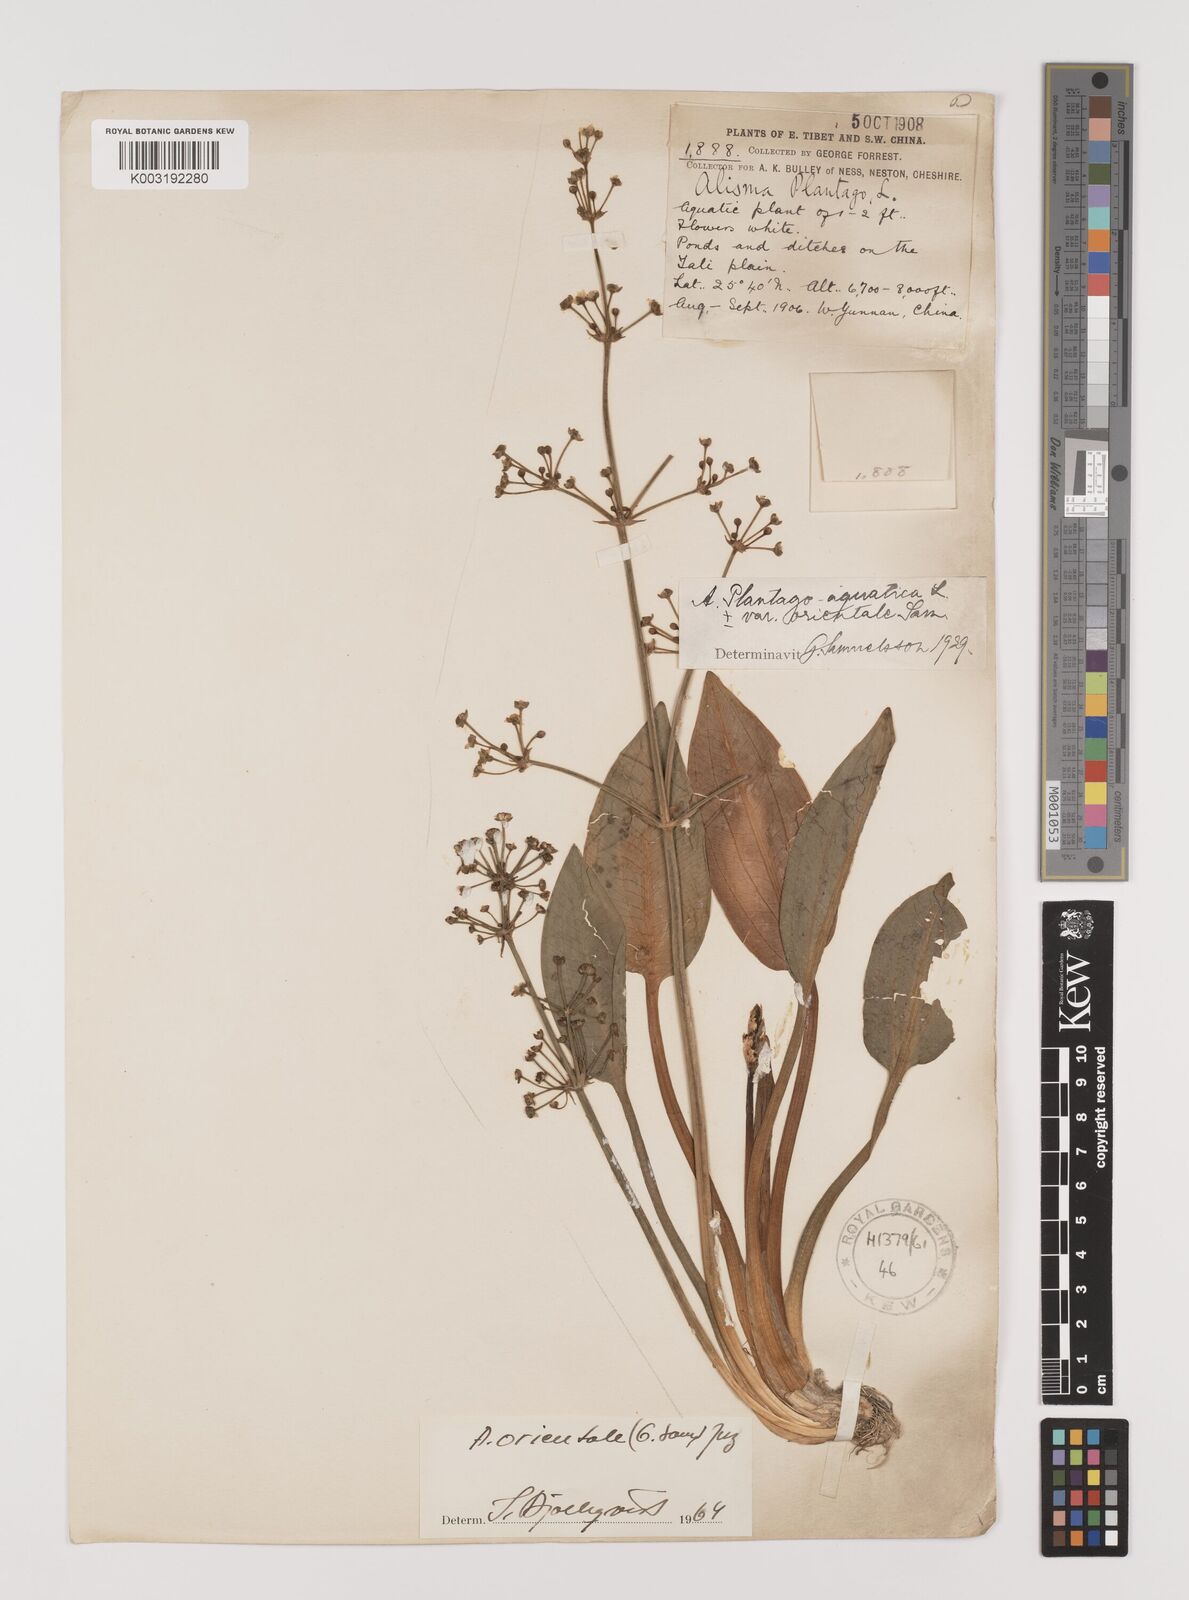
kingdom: Plantae
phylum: Tracheophyta
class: Liliopsida
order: Alismatales
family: Alismataceae
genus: Alisma
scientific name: Alisma plantago-aquatica
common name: Water-plantain
